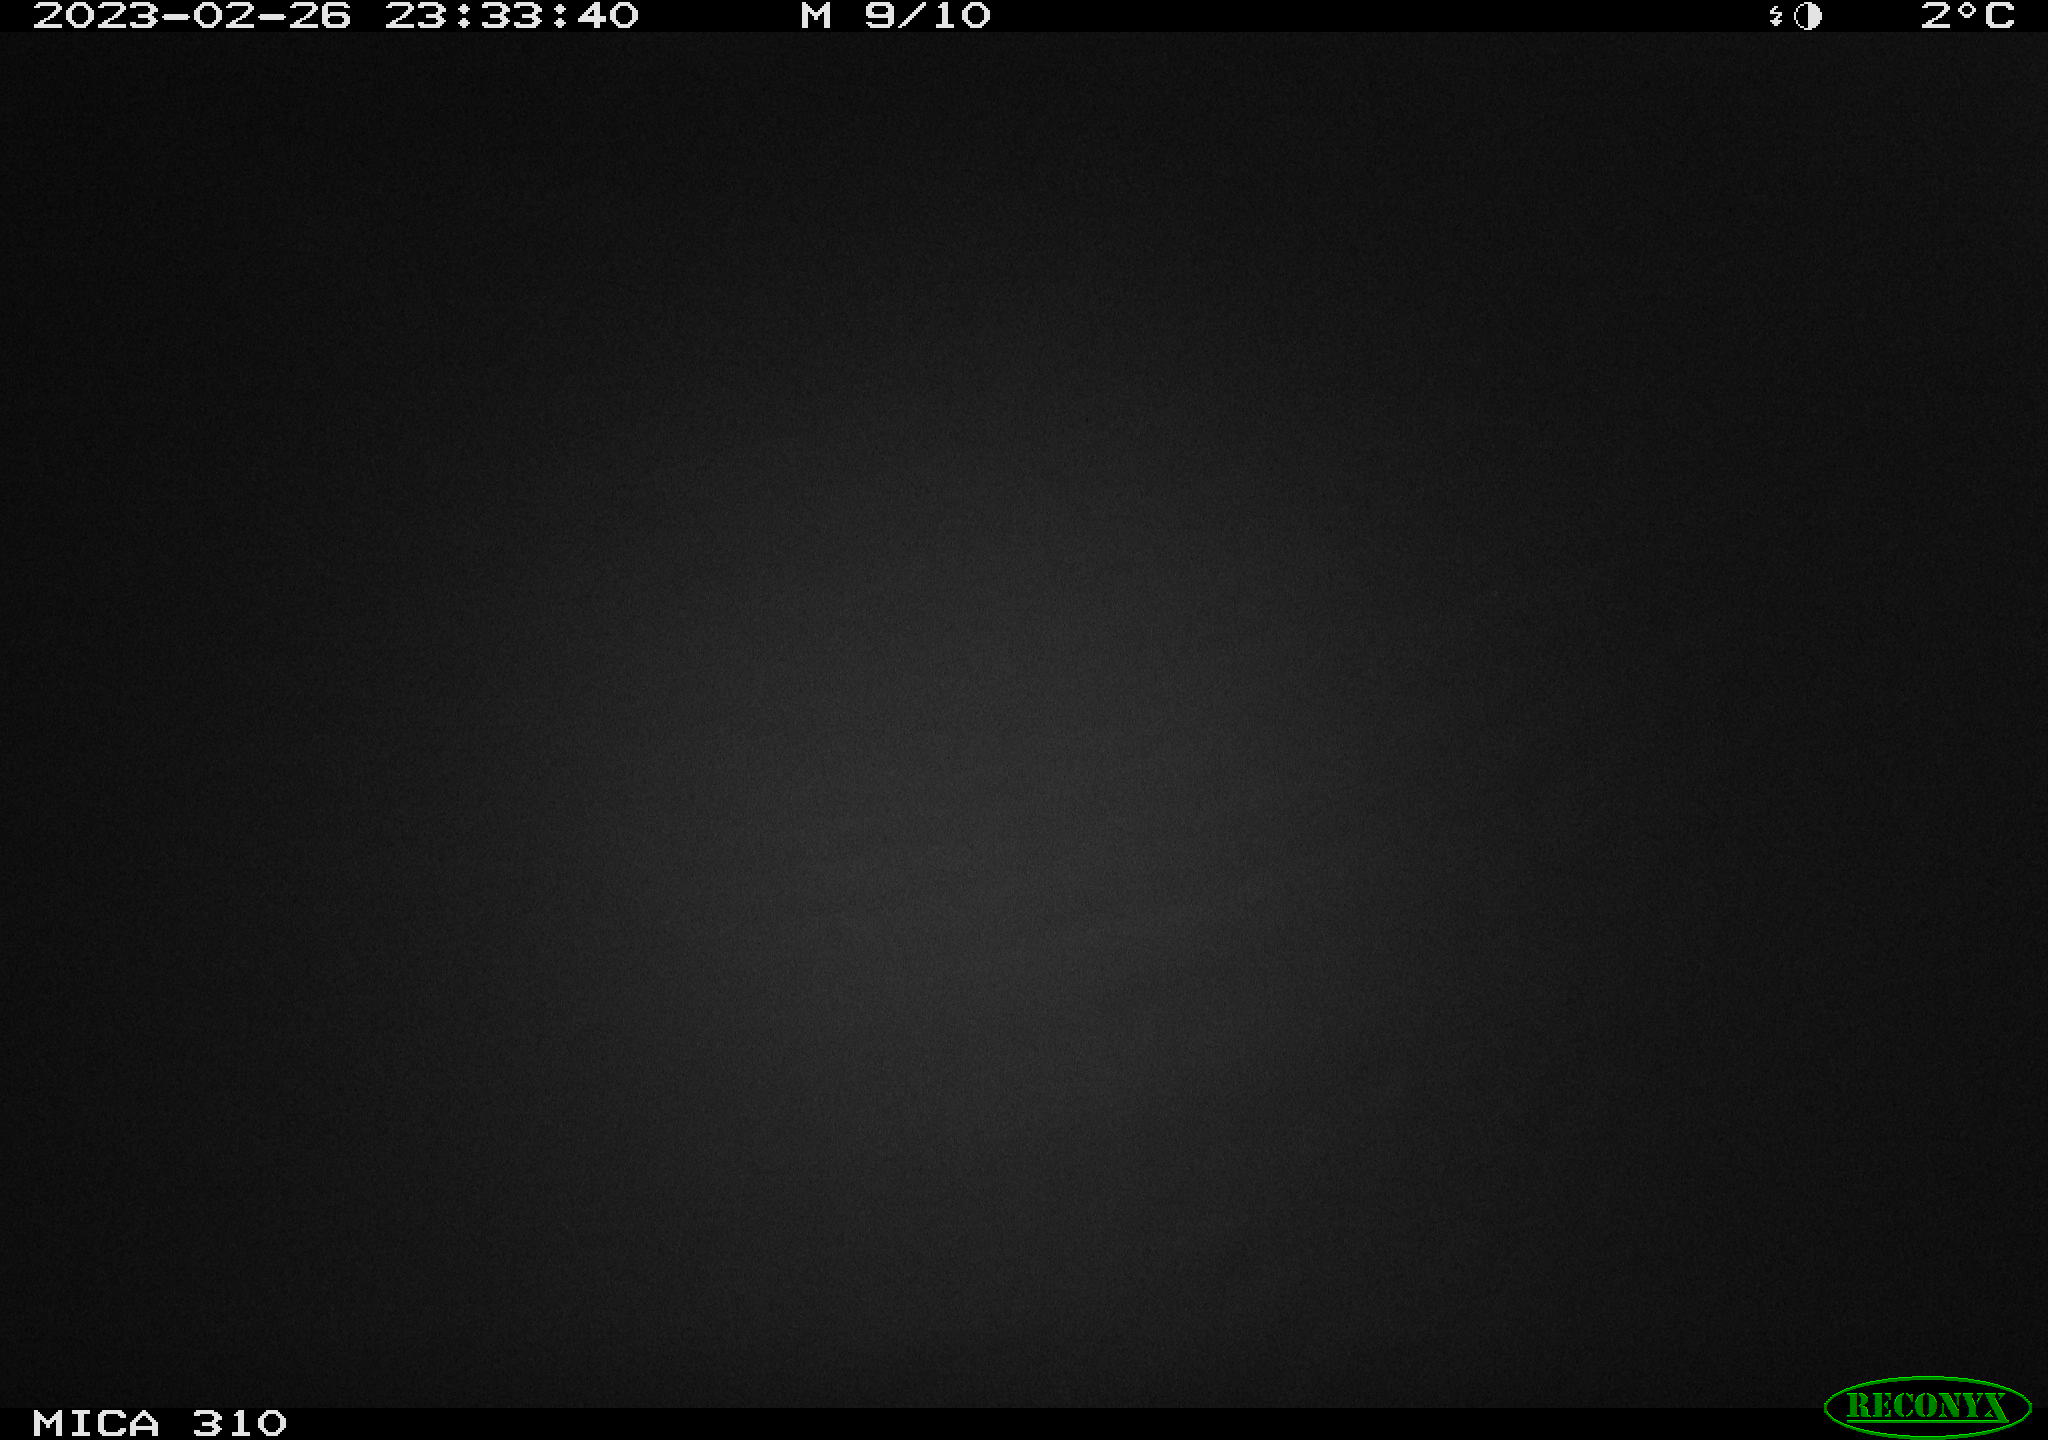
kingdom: Animalia
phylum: Chordata
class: Mammalia
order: Rodentia
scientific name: Rodentia
